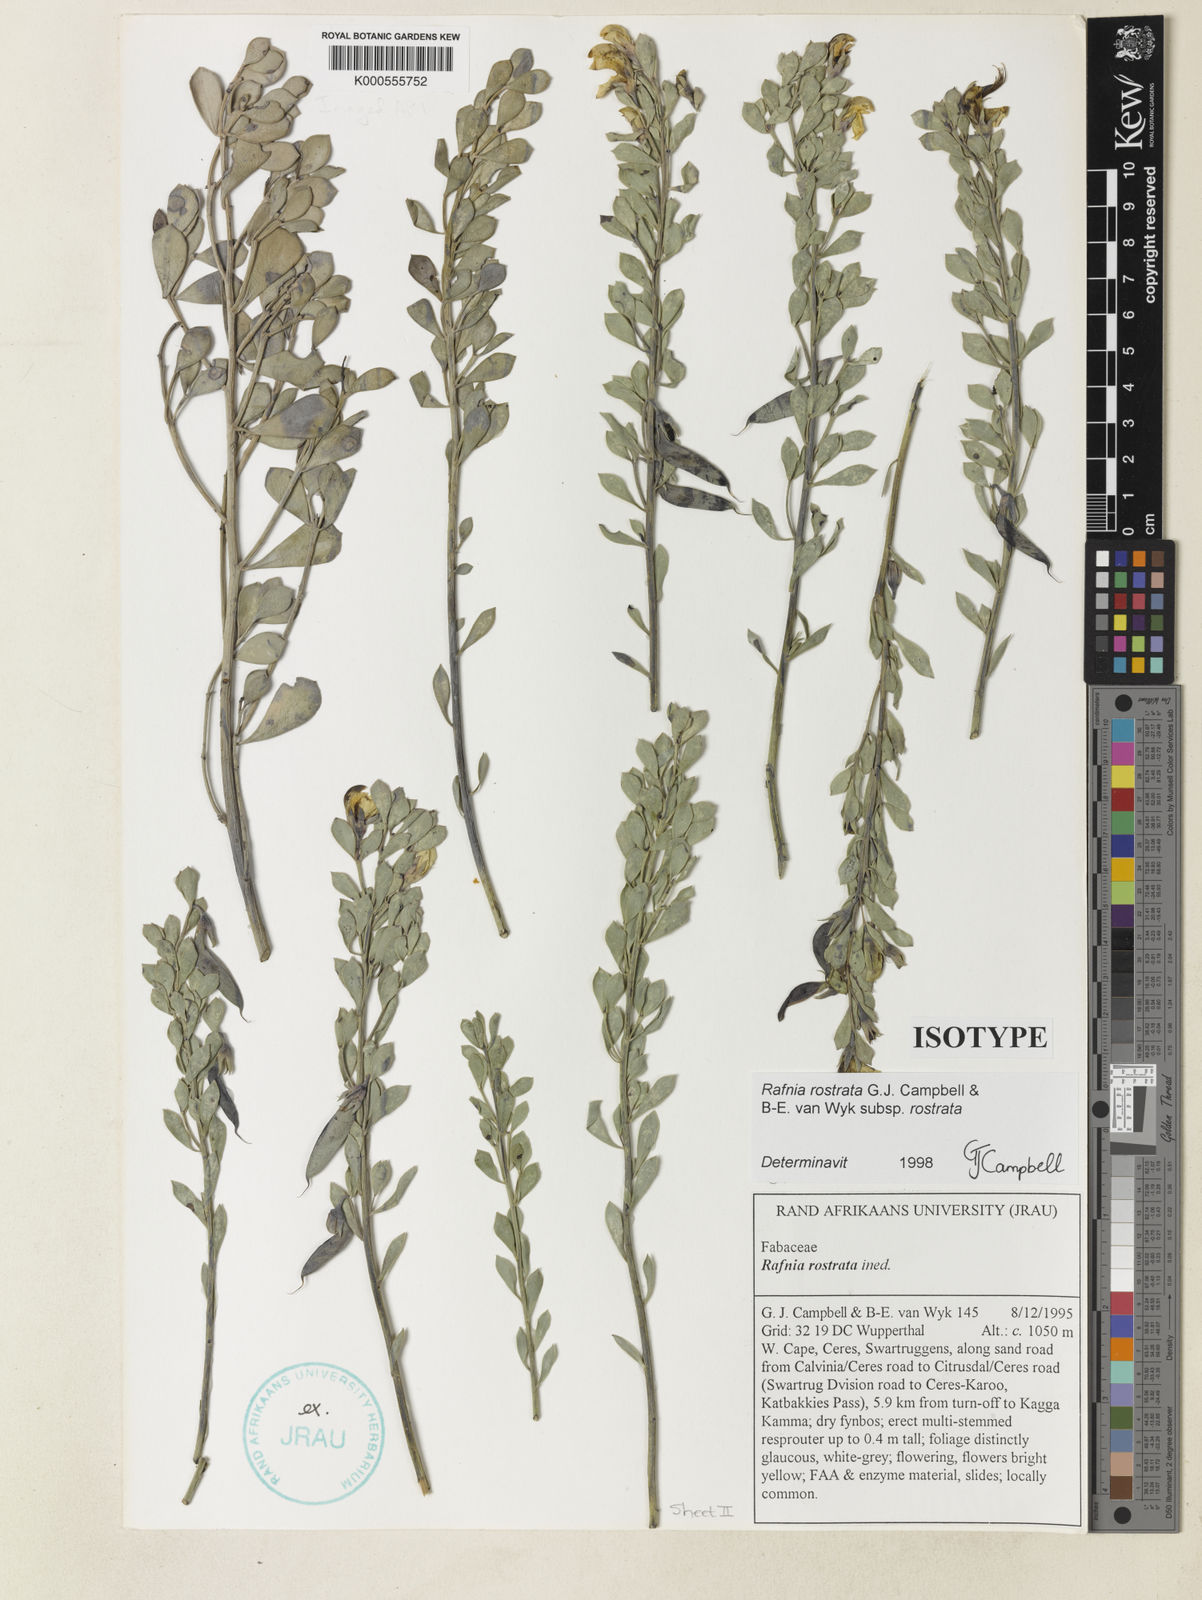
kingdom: Plantae
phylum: Tracheophyta
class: Magnoliopsida
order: Fabales
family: Fabaceae
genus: Rafnia
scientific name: Rafnia rostrata
